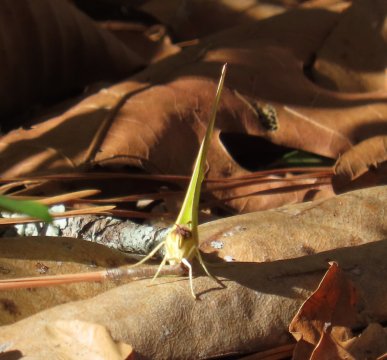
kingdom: Animalia
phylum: Arthropoda
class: Insecta
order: Lepidoptera
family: Pieridae
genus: Phoebis
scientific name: Phoebis sennae
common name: Cloudless Sulphur
